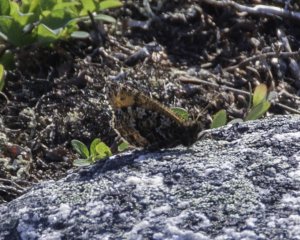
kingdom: Animalia
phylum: Arthropoda
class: Insecta
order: Lepidoptera
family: Nymphalidae
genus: Oeneis
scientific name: Oeneis alpina
